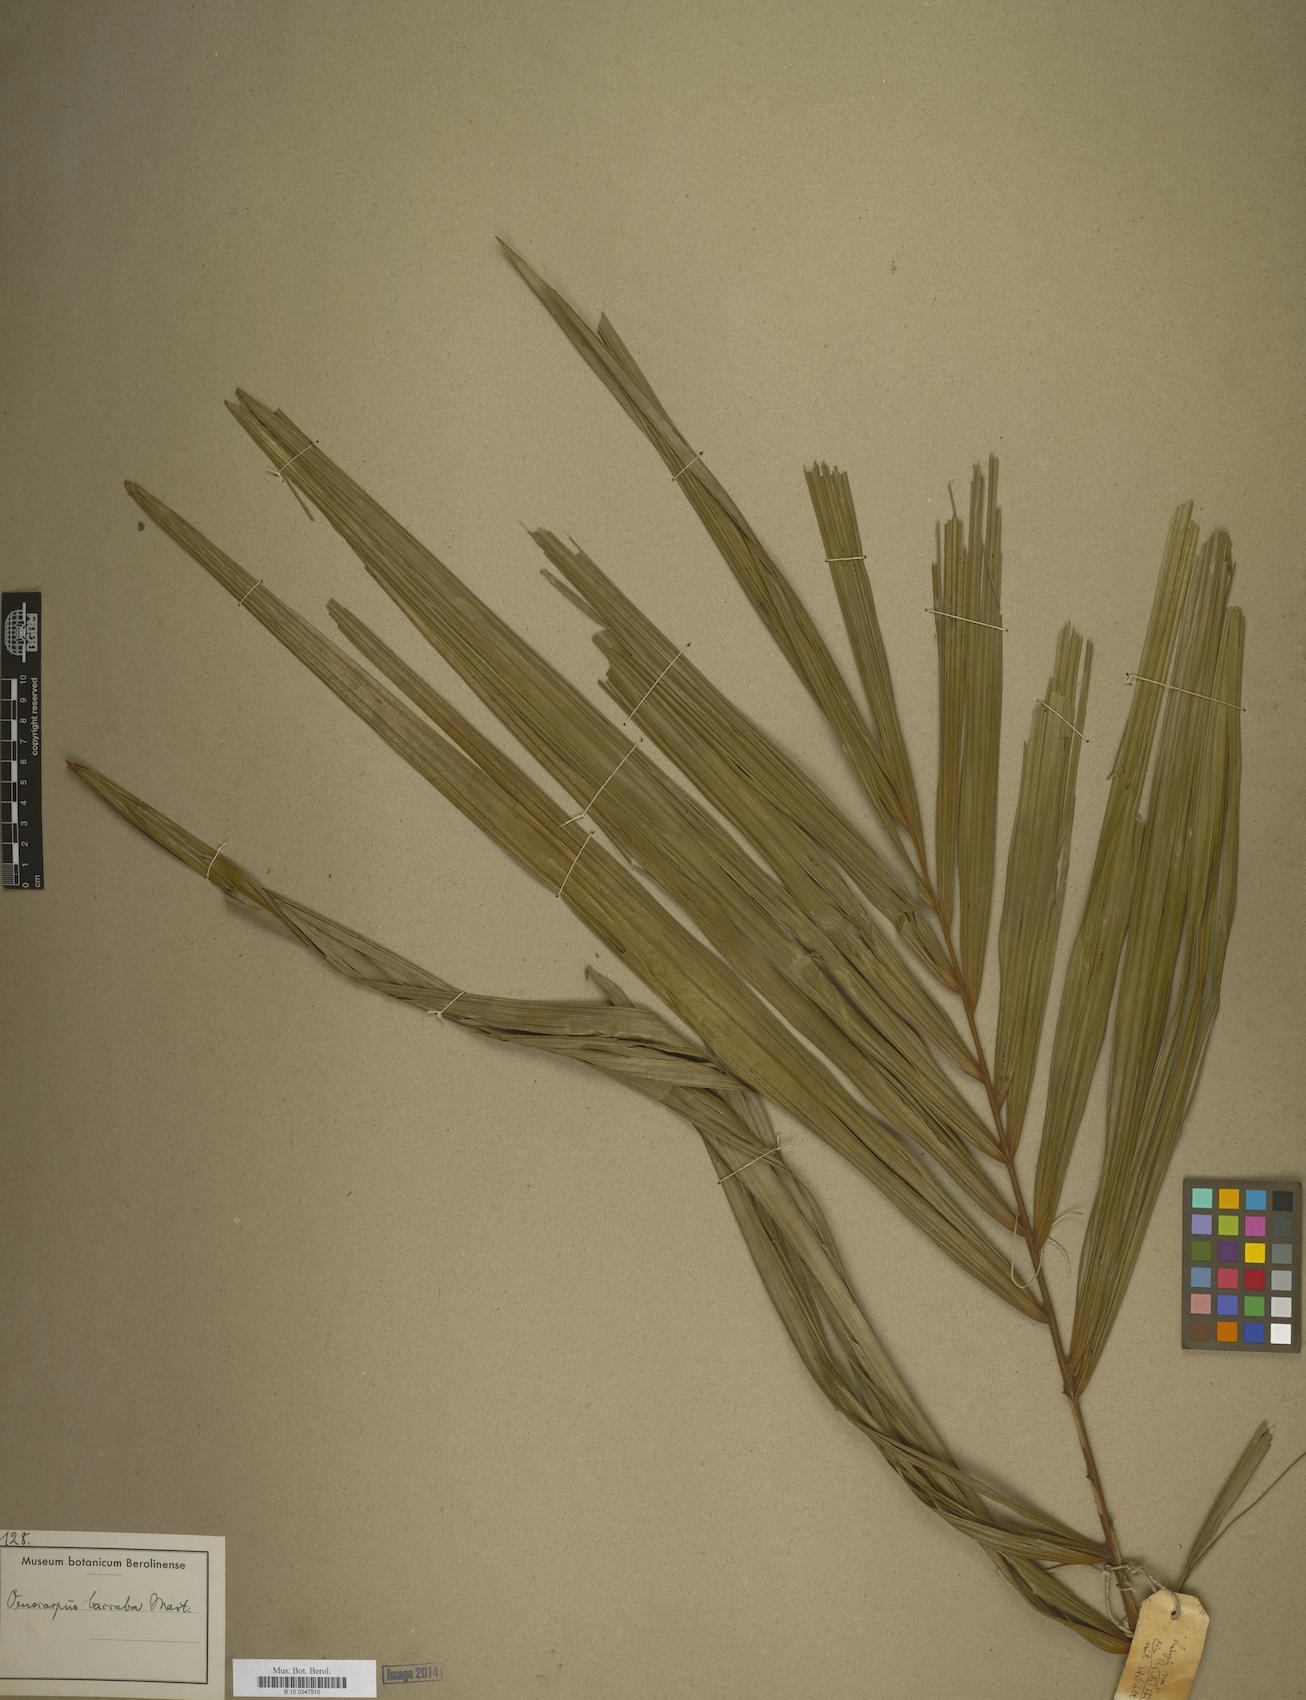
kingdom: Plantae
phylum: Tracheophyta
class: Liliopsida
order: Arecales
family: Arecaceae
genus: Oenocarpus
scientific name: Oenocarpus bacaba
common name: Bacaba palm
